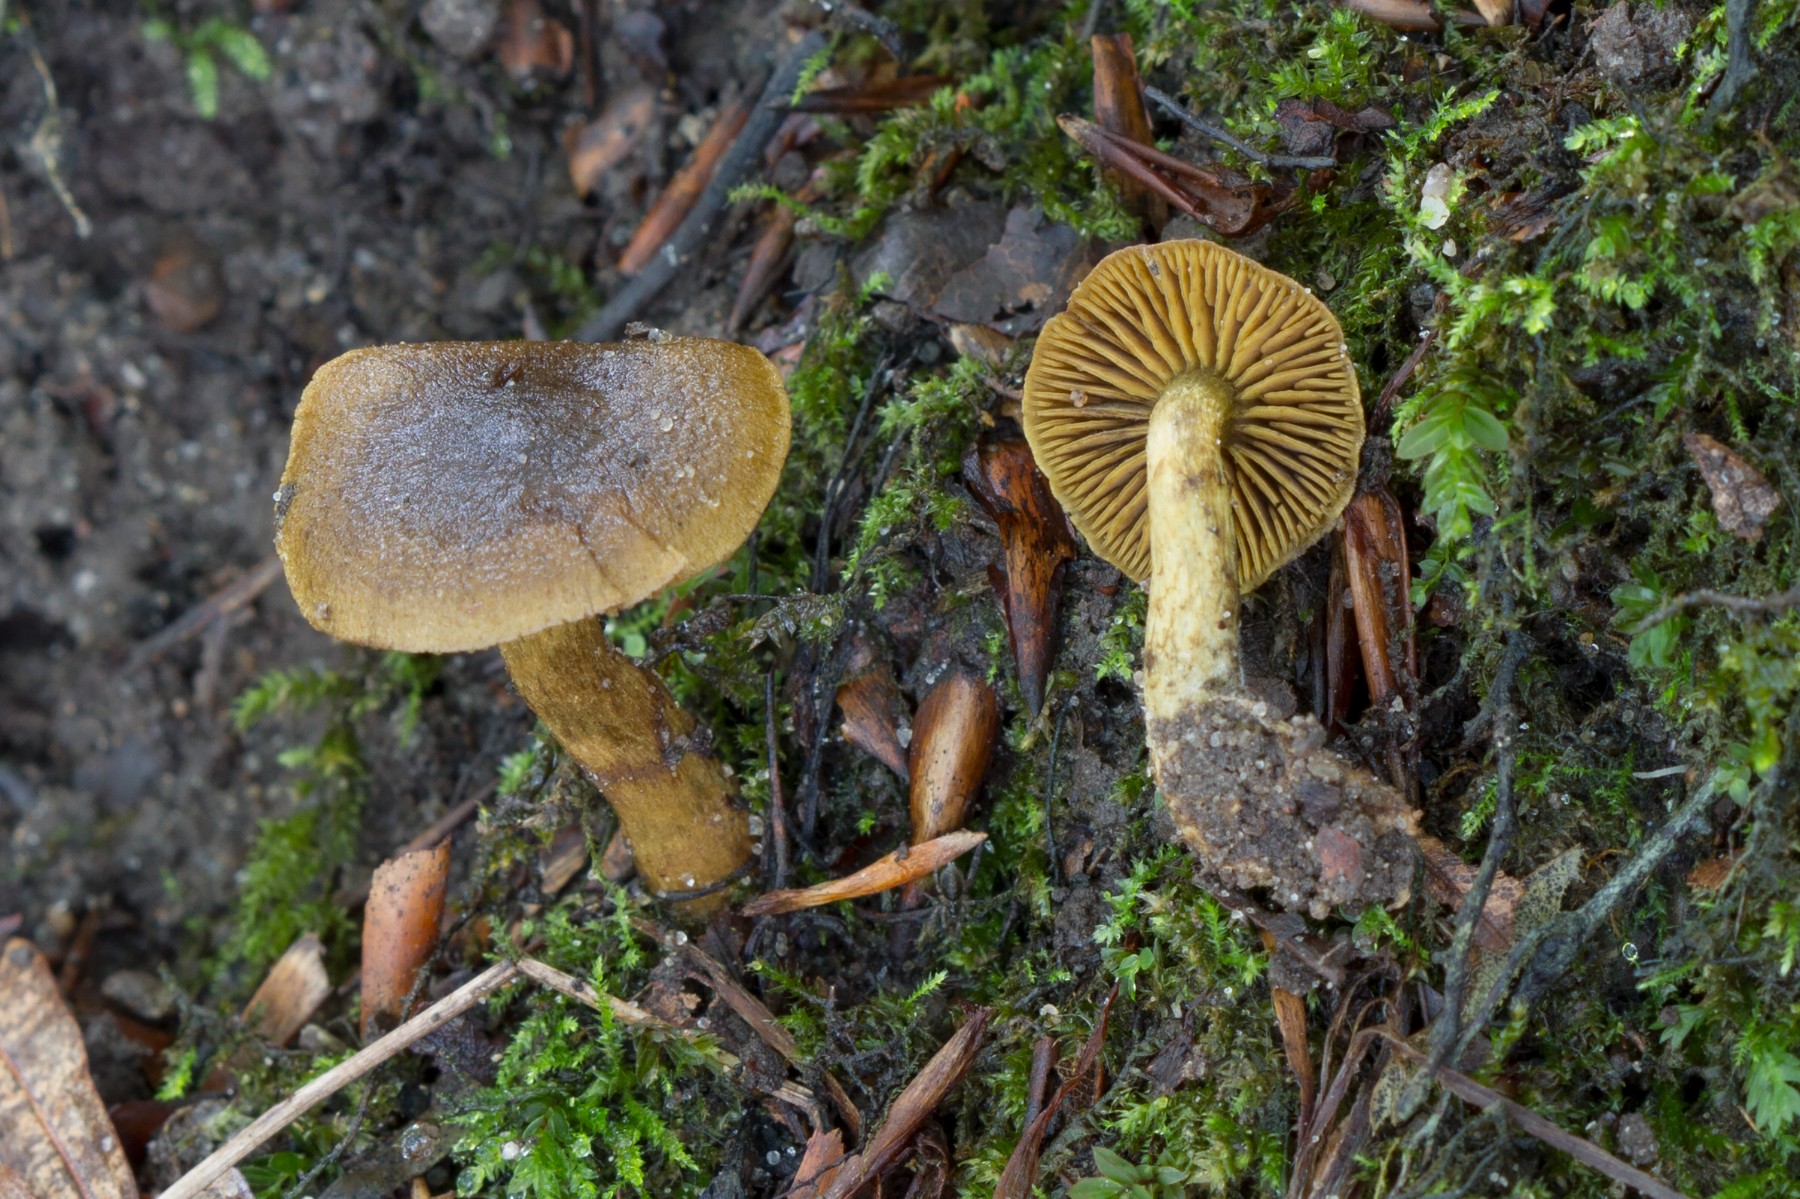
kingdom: Fungi
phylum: Basidiomycota
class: Agaricomycetes
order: Agaricales
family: Cortinariaceae
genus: Cortinarius
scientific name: Cortinarius olivaceofuscus
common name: olivenbrun slørhat
